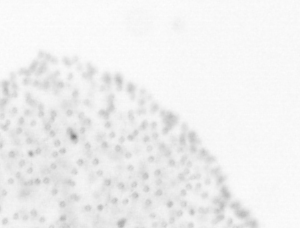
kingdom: Chromista
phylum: Ochrophyta
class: Bacillariophyceae
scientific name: Bacillariophyceae
